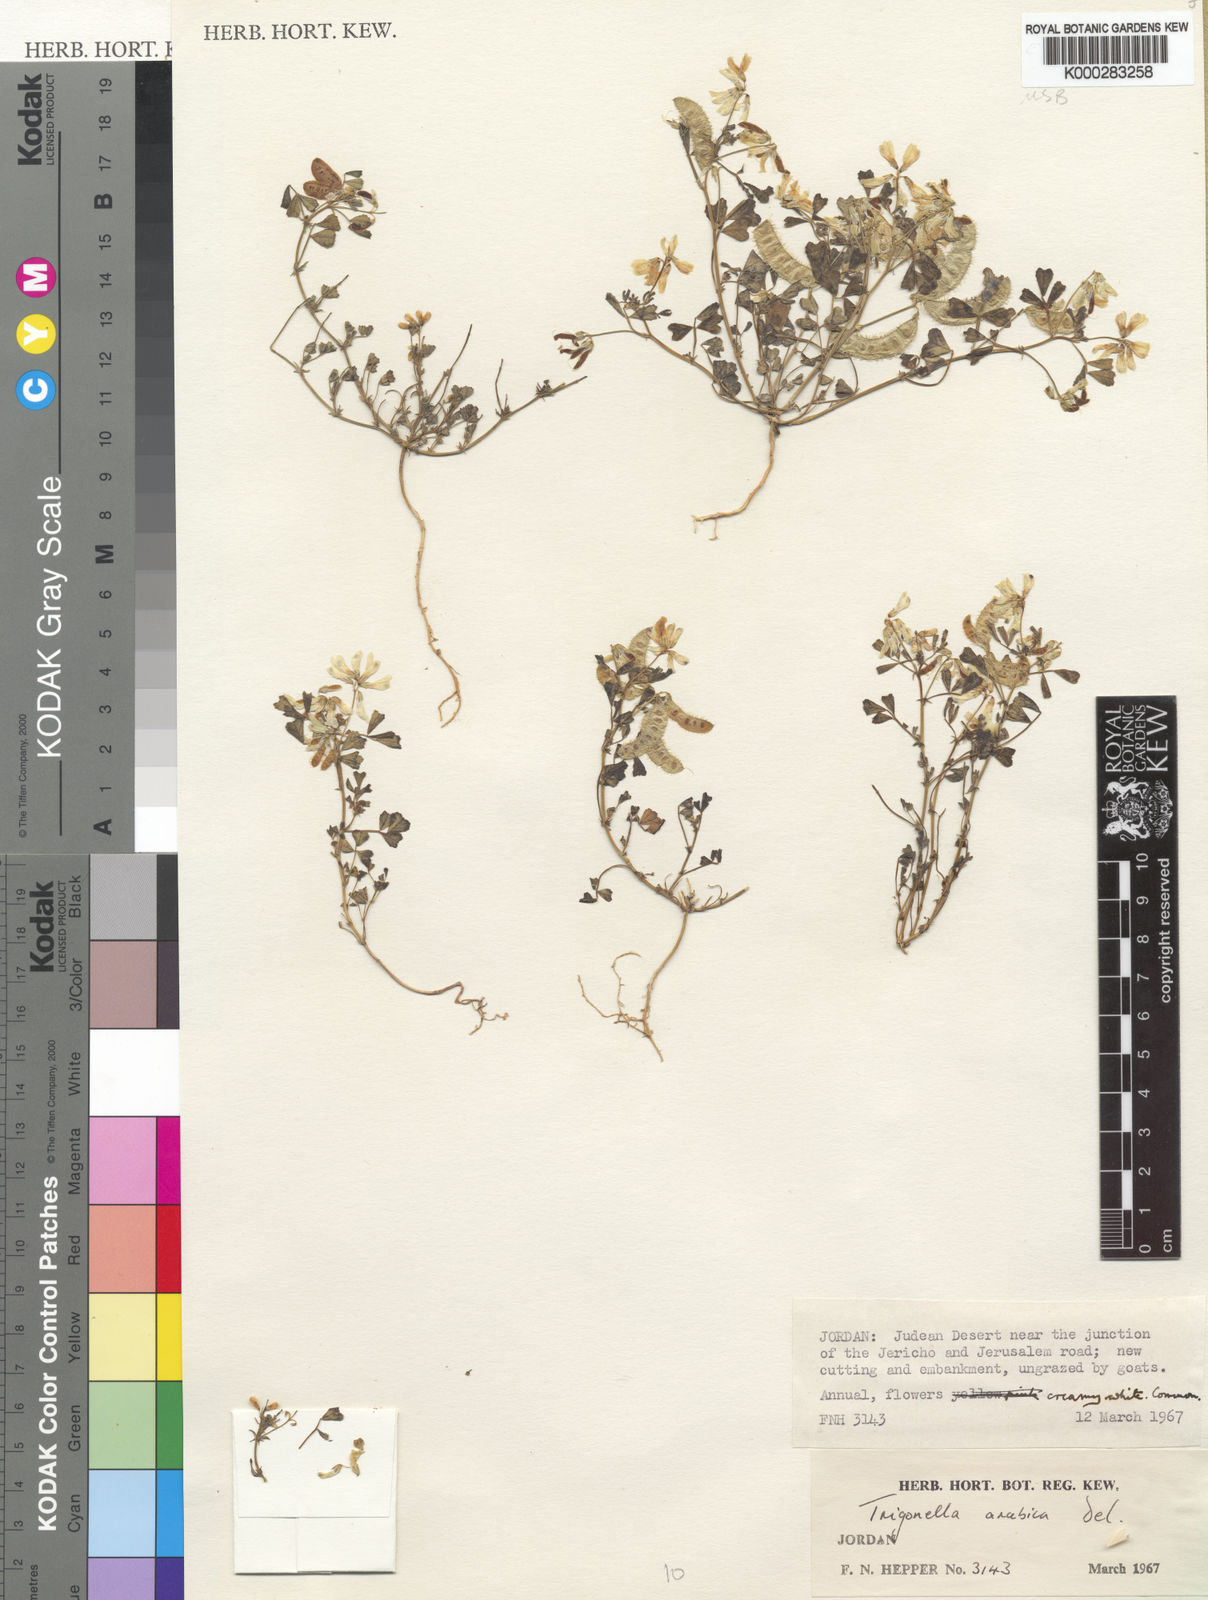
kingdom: Plantae
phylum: Tracheophyta
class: Magnoliopsida
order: Fabales
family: Fabaceae
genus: Trigonella
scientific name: Trigonella arabica
